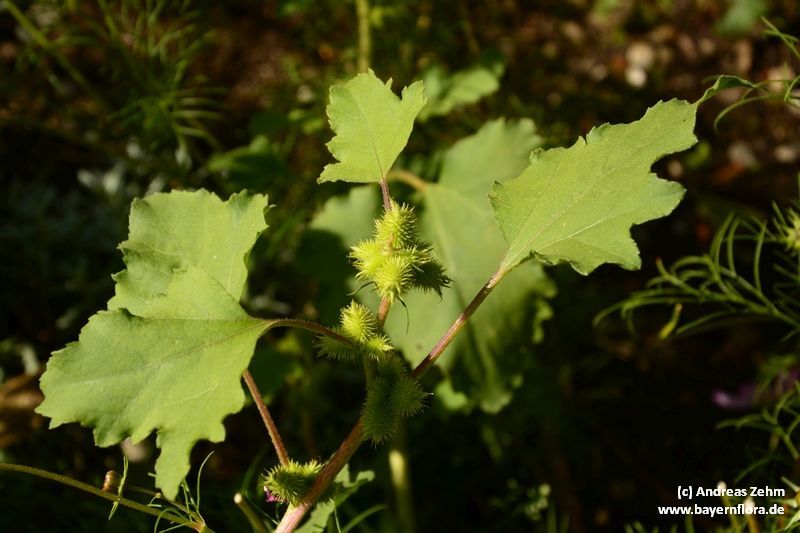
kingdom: Plantae
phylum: Tracheophyta
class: Magnoliopsida
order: Asterales
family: Asteraceae
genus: Xanthium
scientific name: Xanthium strumarium
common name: Rough cocklebur
